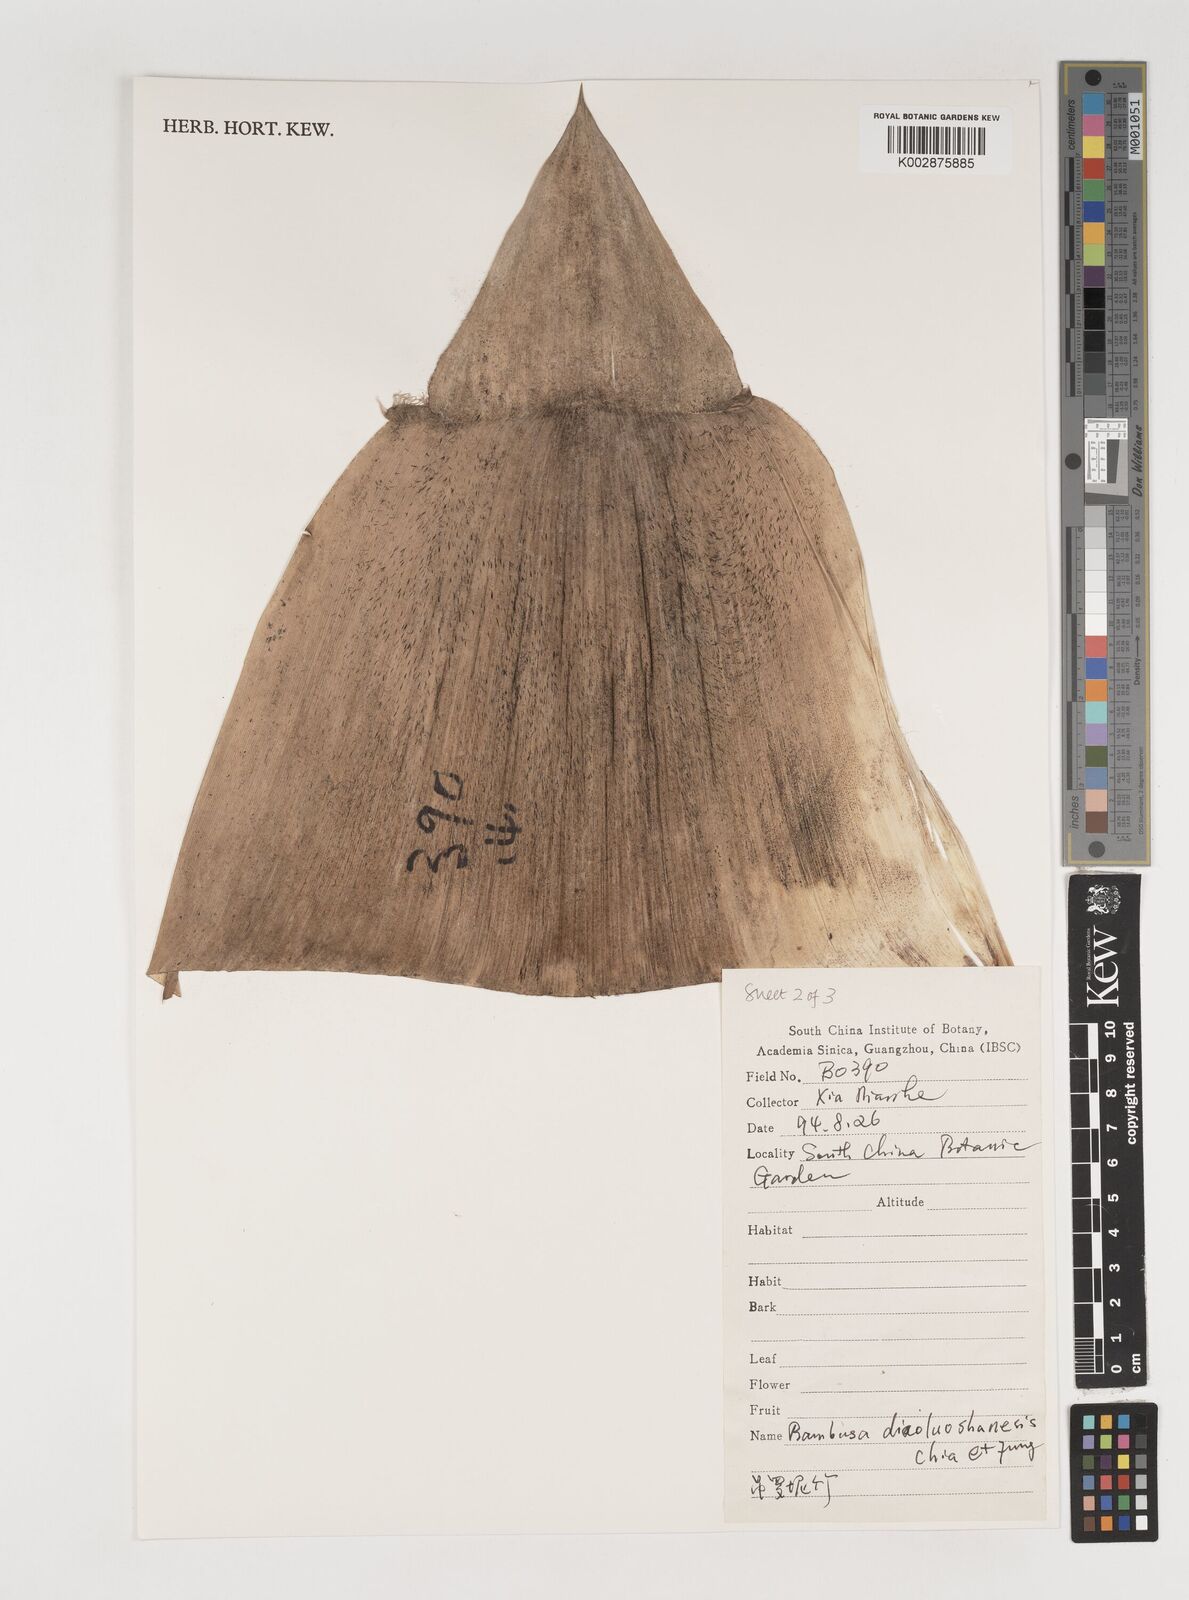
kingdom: Plantae
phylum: Tracheophyta
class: Liliopsida
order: Poales
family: Poaceae
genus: Bambusa
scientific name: Bambusa diaoluoshanensis
